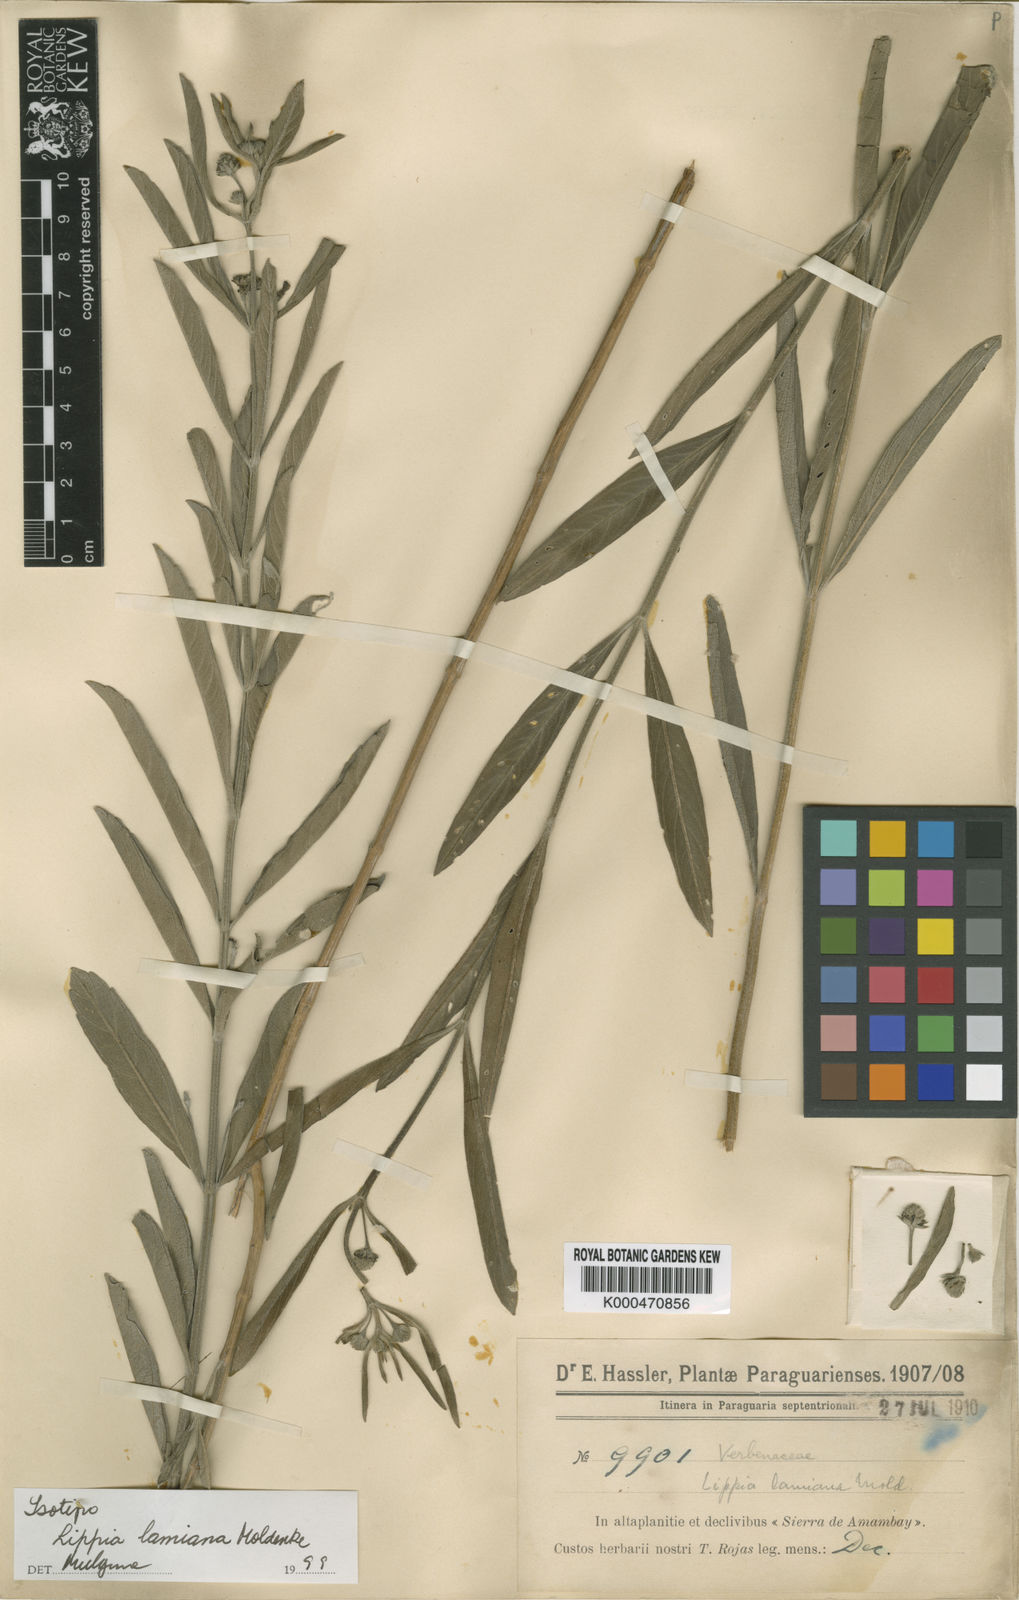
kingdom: Plantae
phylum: Tracheophyta
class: Magnoliopsida
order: Lamiales
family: Verbenaceae
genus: Lippia
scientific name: Lippia lamiana
